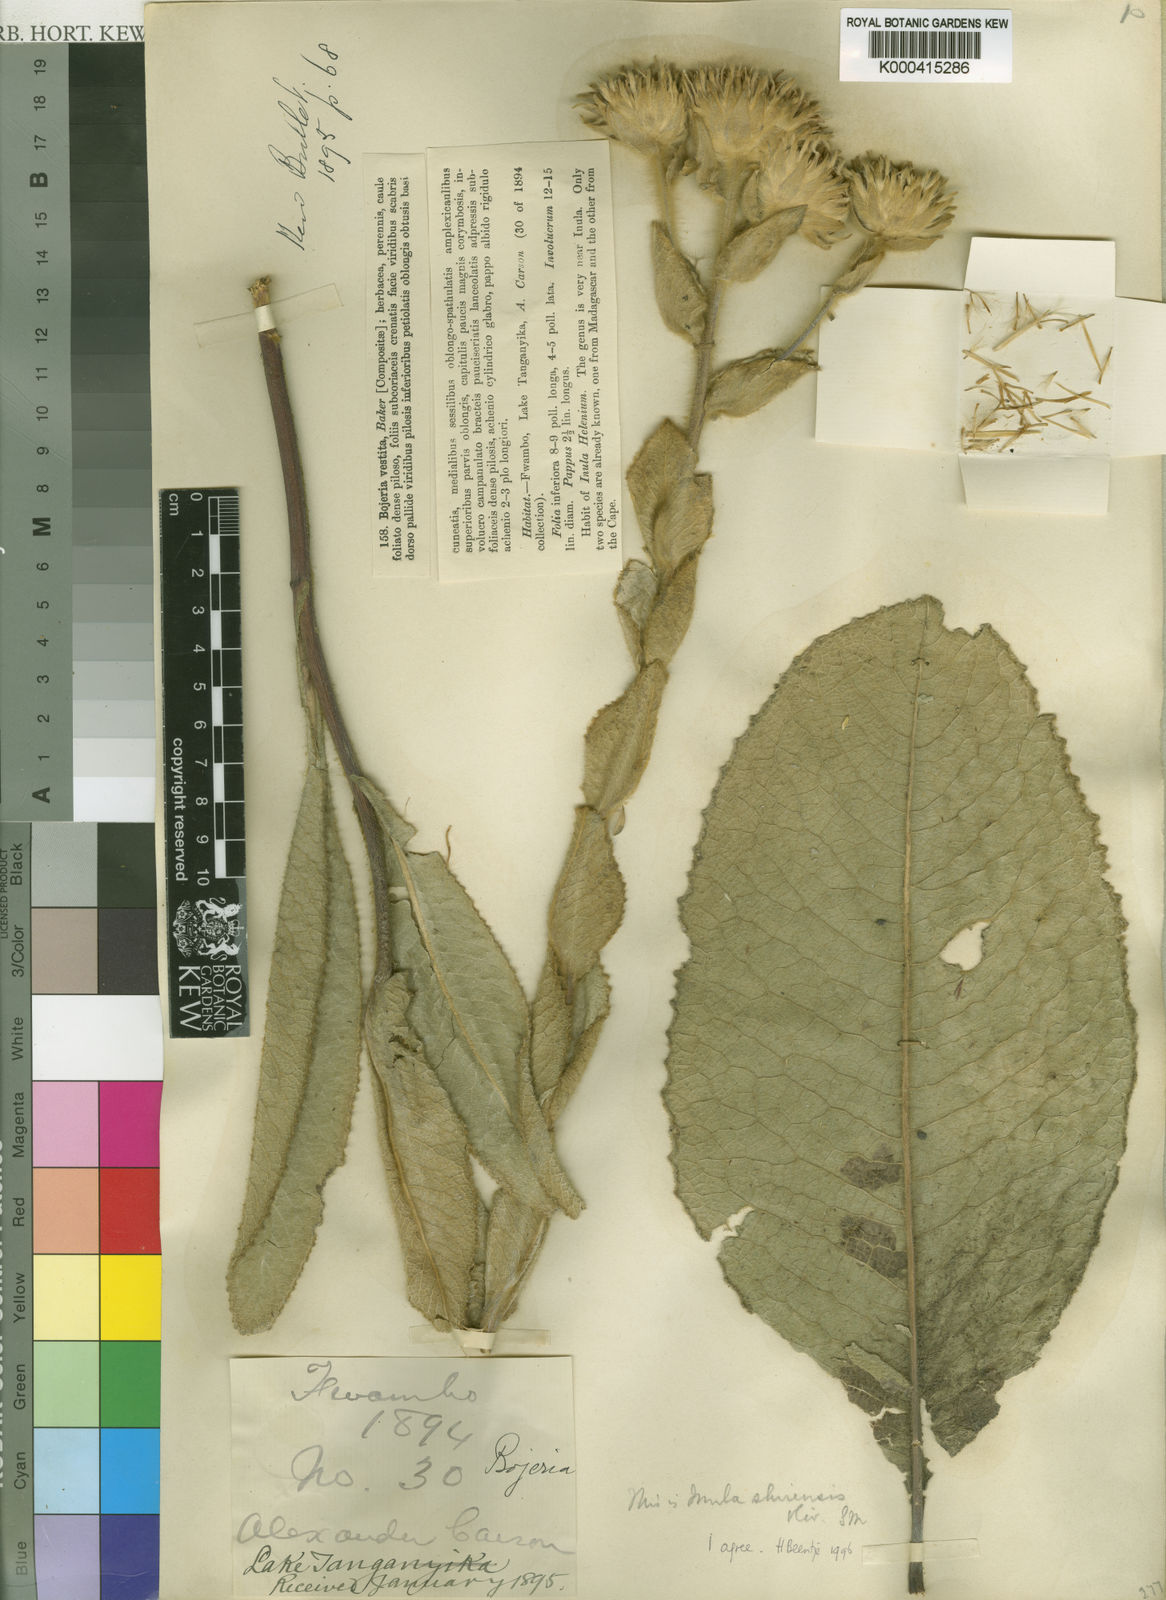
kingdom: Plantae
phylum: Tracheophyta
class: Magnoliopsida
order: Asterales
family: Asteraceae
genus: Monactinocephalus
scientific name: Monactinocephalus shirensis
